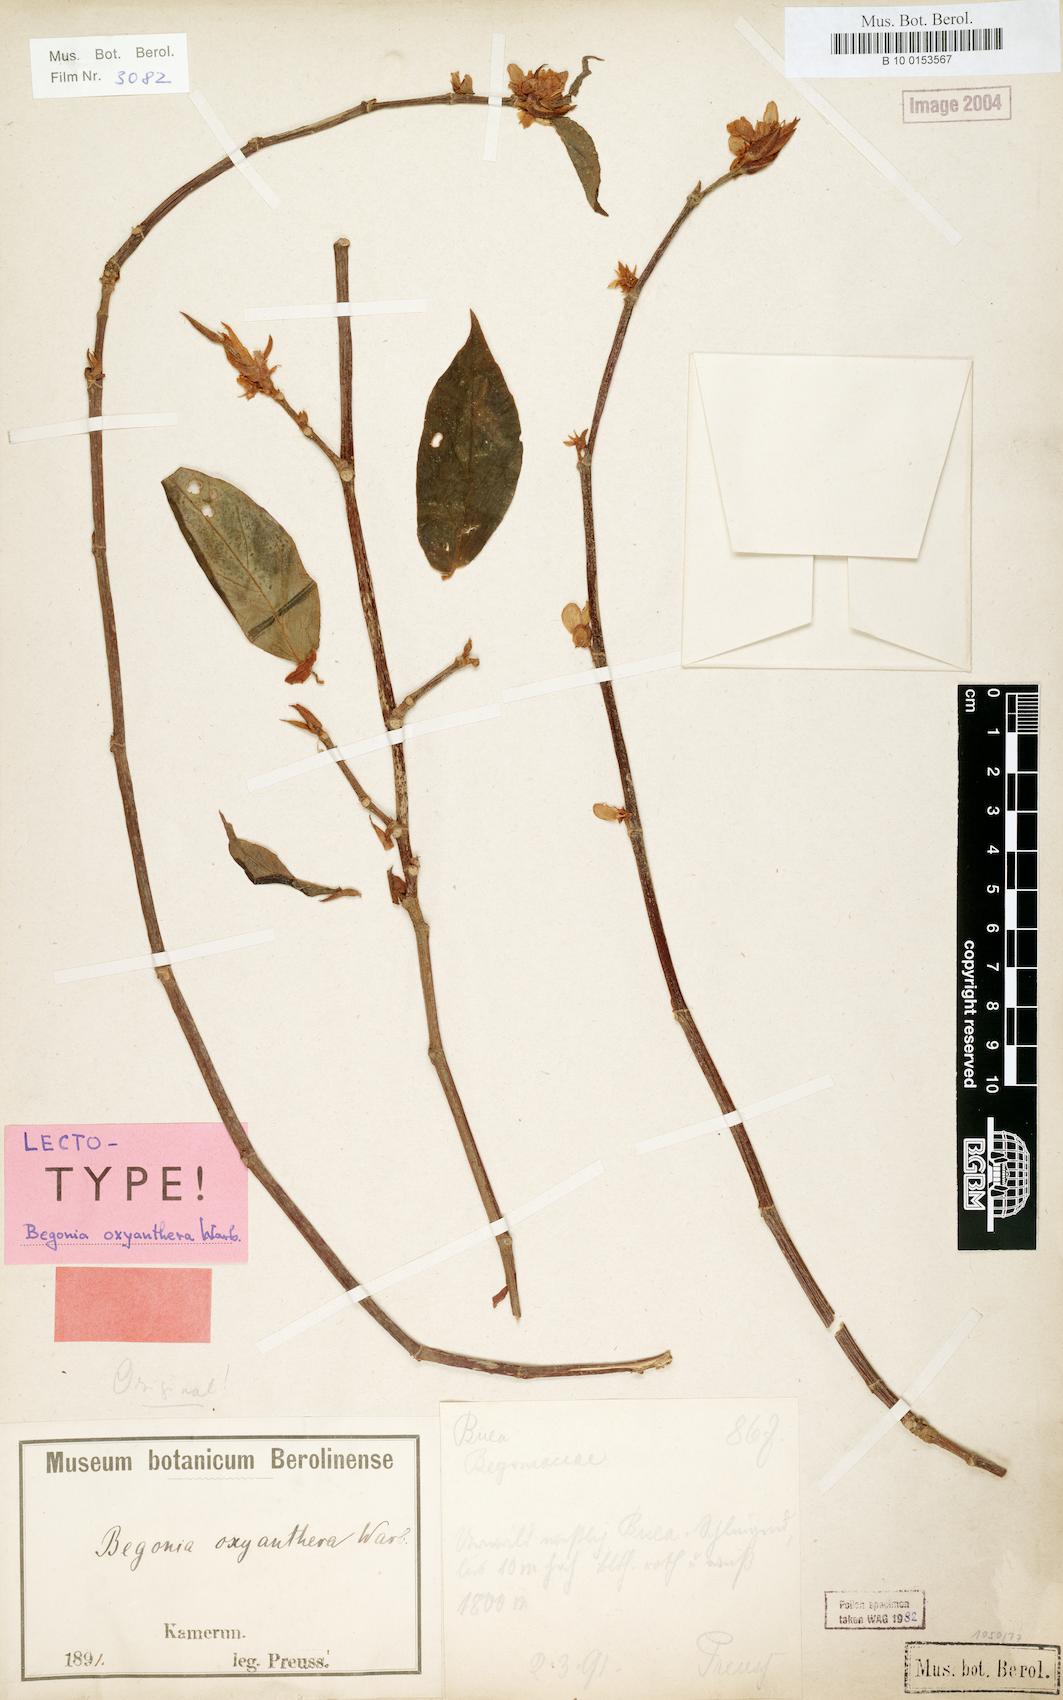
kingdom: Plantae
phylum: Tracheophyta
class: Magnoliopsida
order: Cucurbitales
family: Begoniaceae
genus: Begonia
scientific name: Begonia oxyanthera
